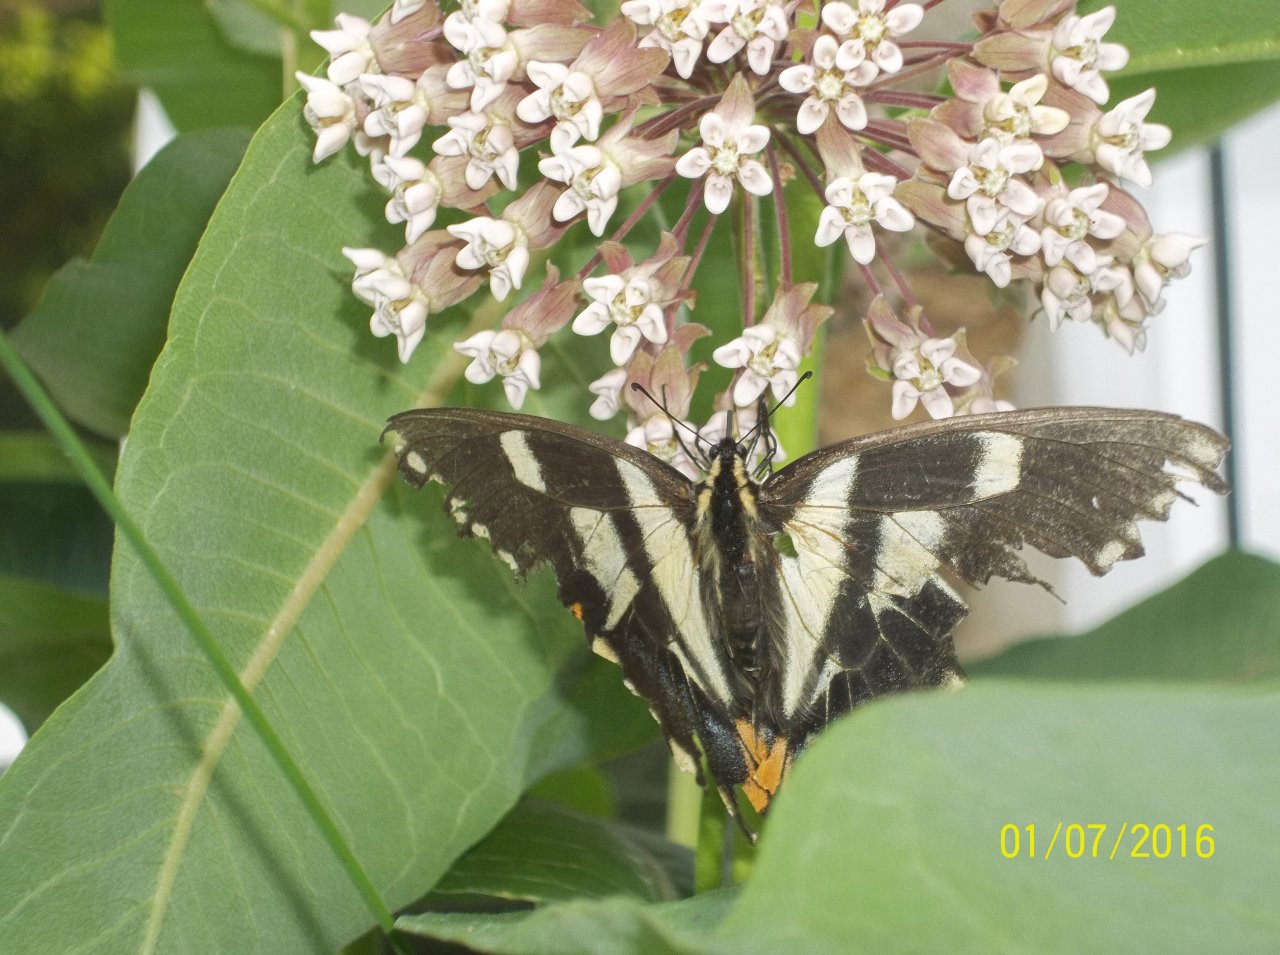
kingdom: Animalia
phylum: Arthropoda
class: Insecta
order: Lepidoptera
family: Papilionidae
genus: Pterourus
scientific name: Pterourus canadensis
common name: Canadian Tiger Swallowtail
